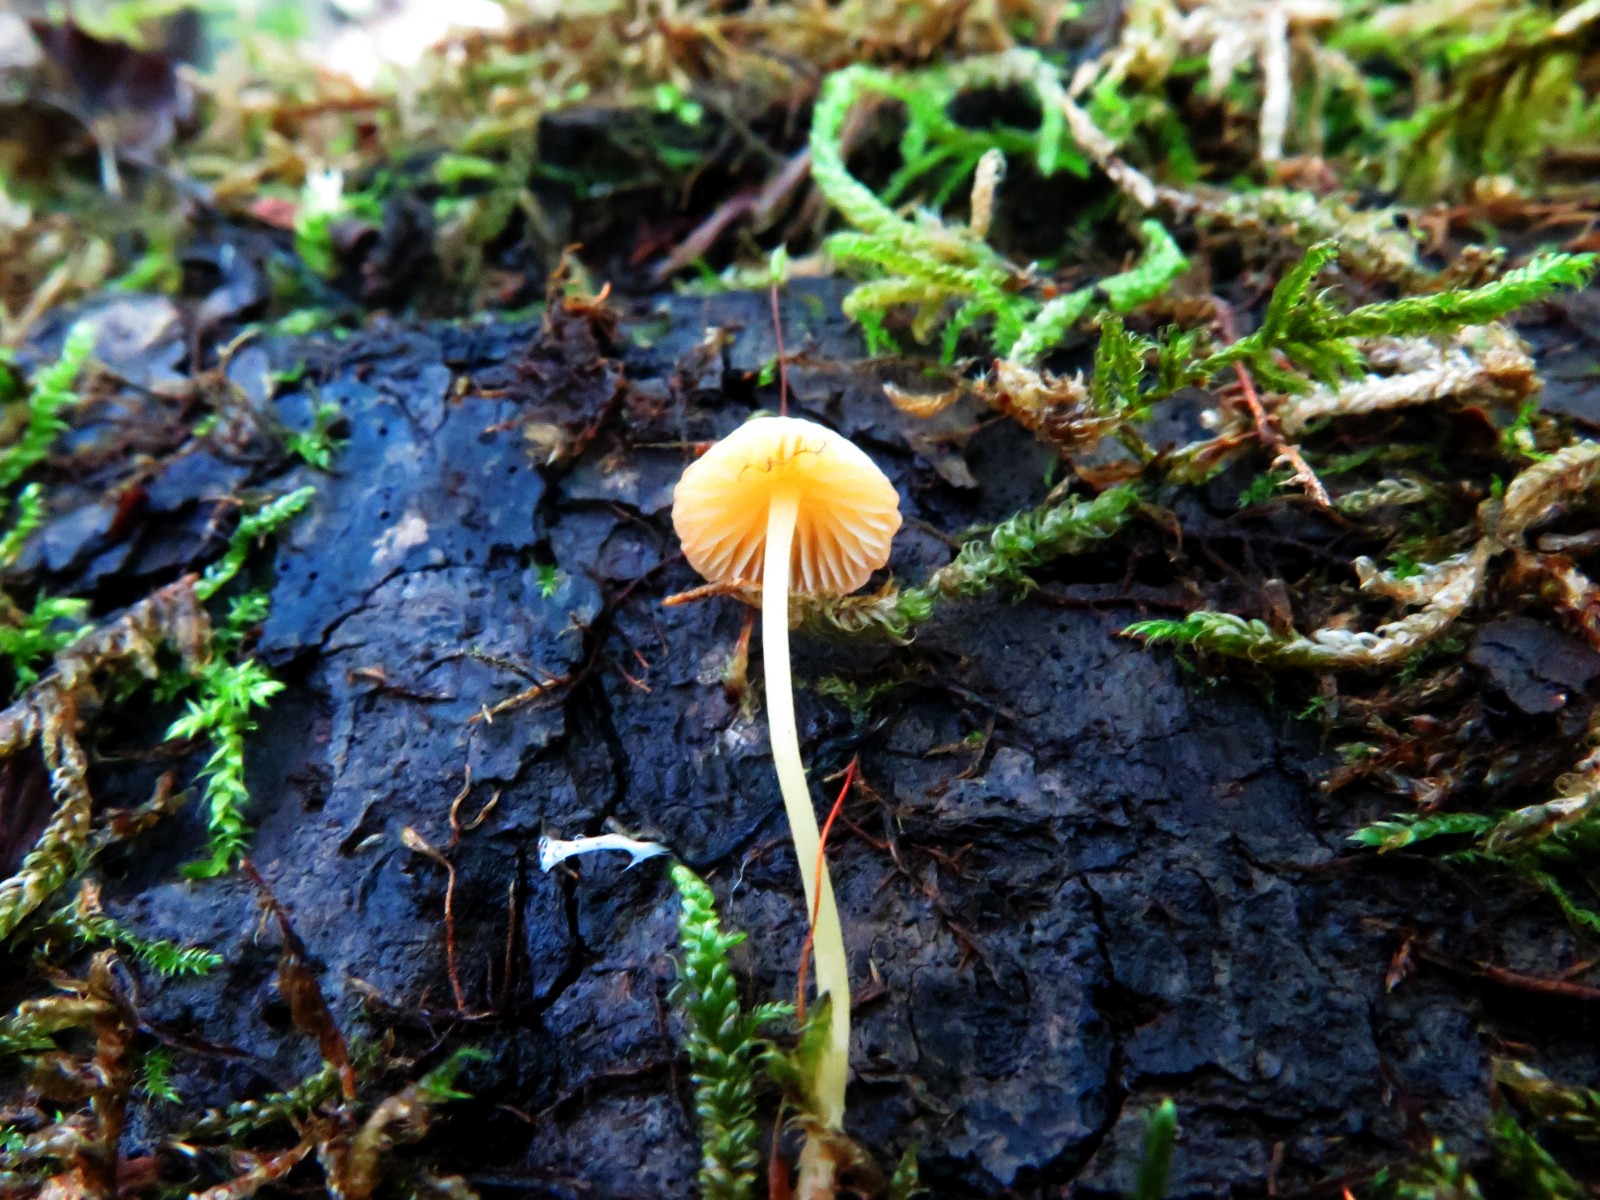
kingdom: Fungi
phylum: Basidiomycota
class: Agaricomycetes
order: Agaricales
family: Mycenaceae
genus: Mycena
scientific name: Mycena acicula
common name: orange huesvamp
